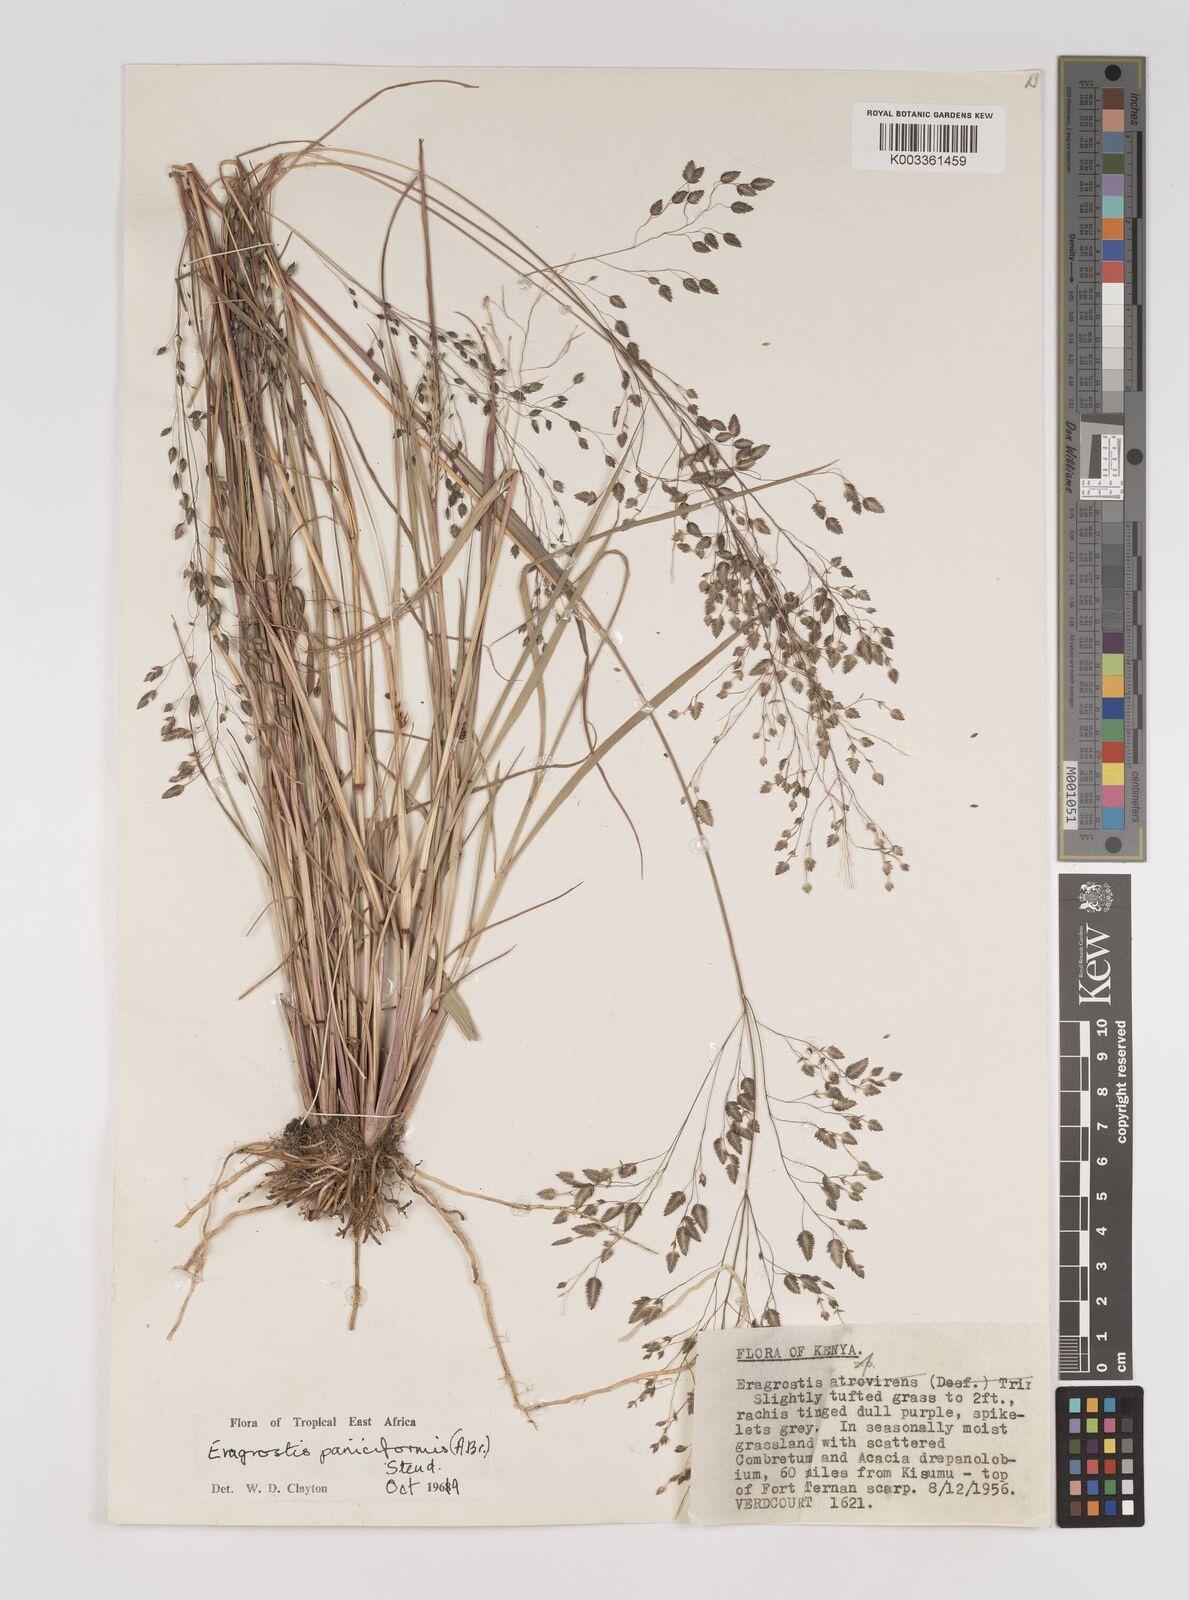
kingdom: Plantae
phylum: Tracheophyta
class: Liliopsida
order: Poales
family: Poaceae
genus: Eragrostis
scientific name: Eragrostis paniciformis
